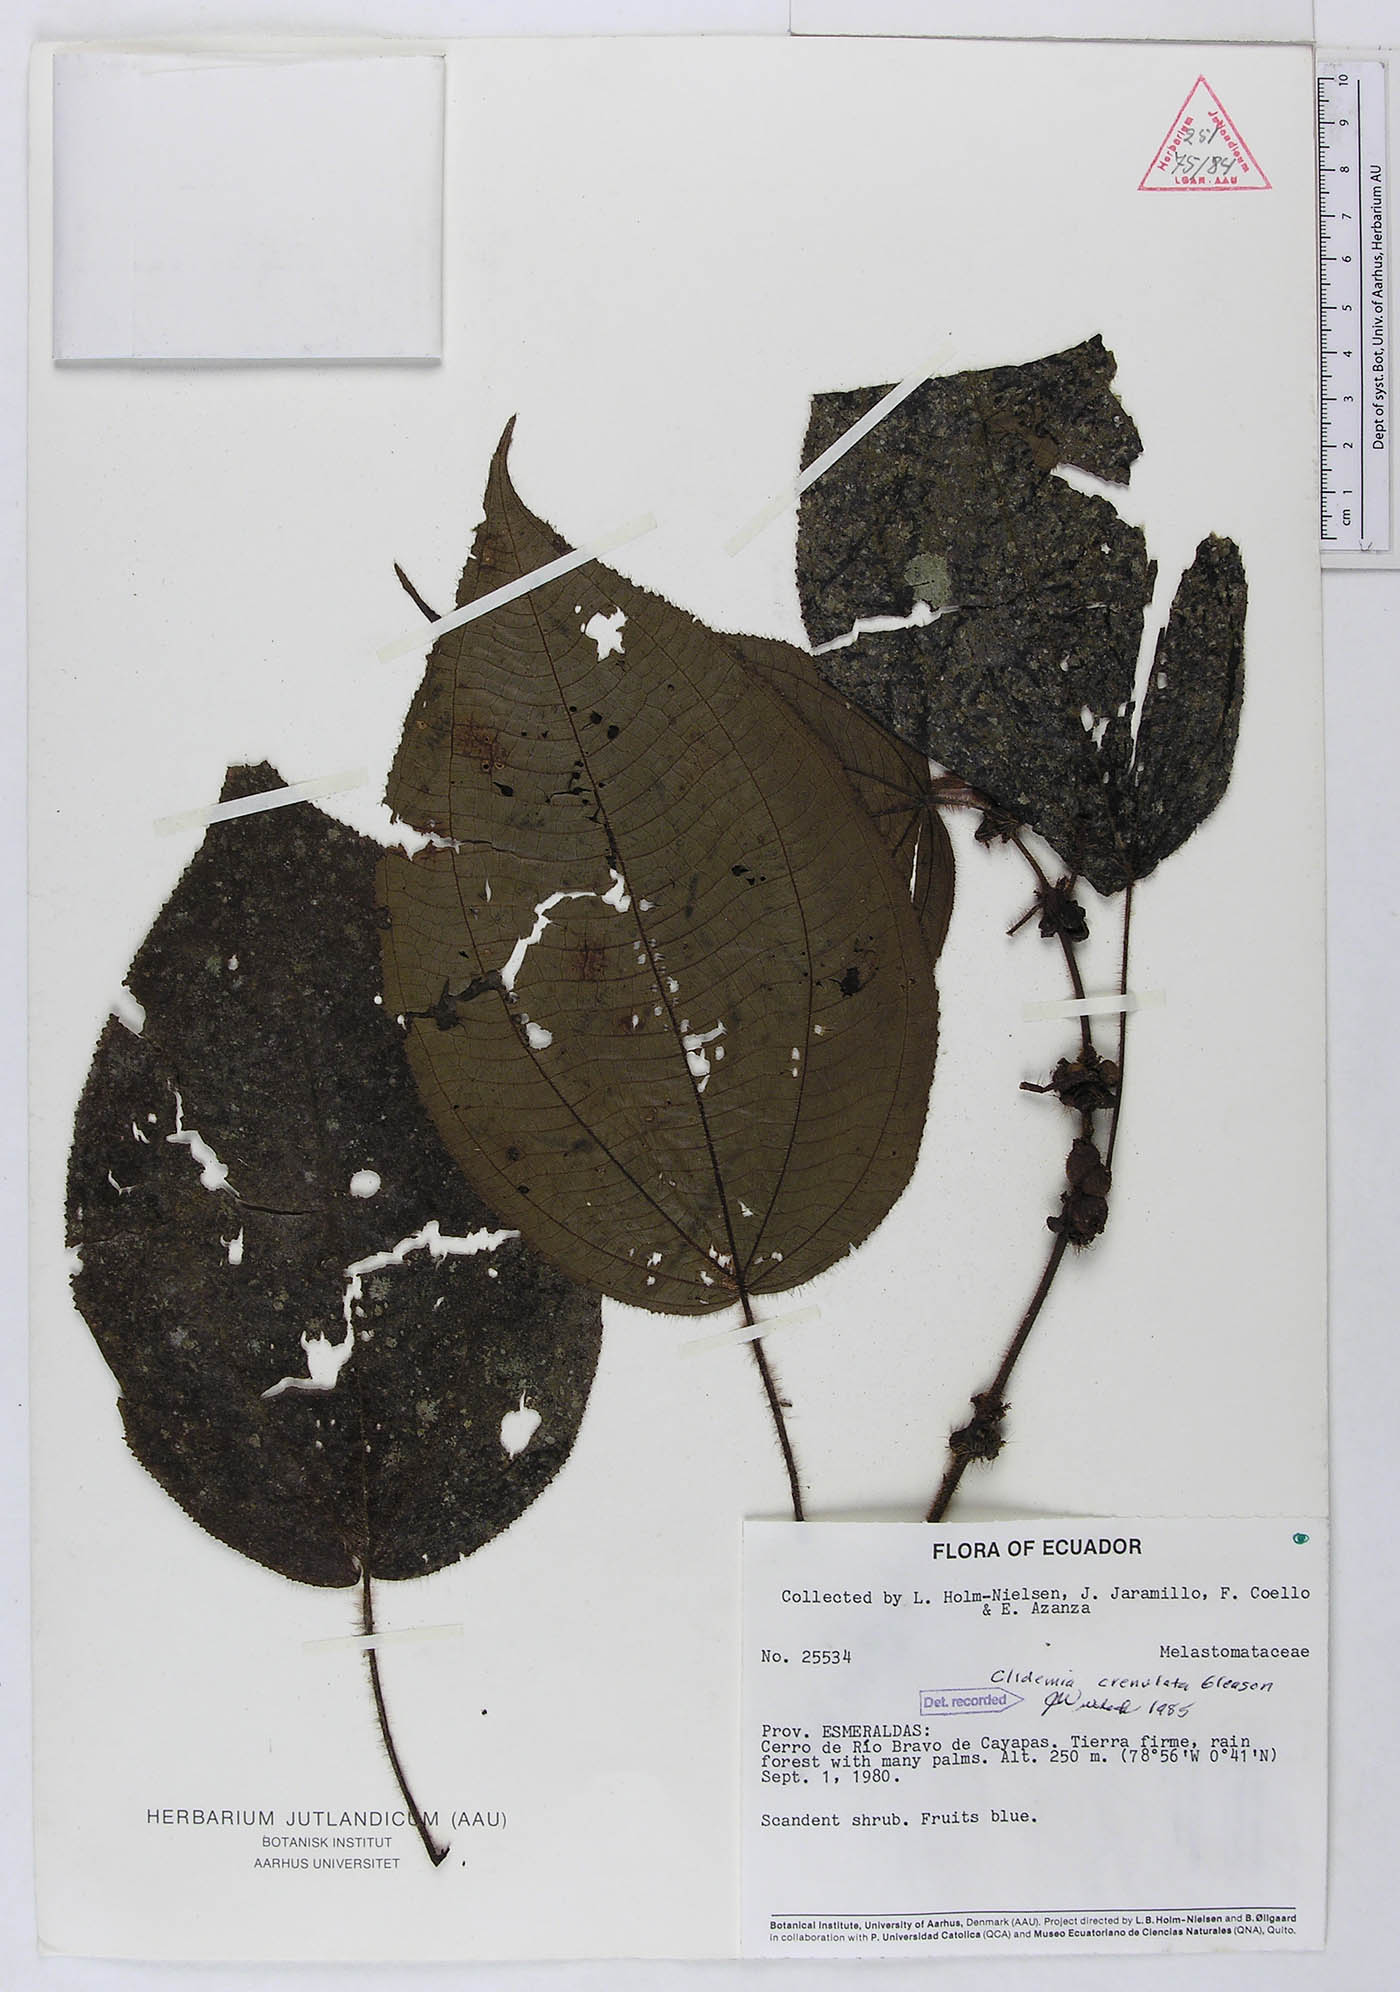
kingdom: Plantae
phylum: Tracheophyta
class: Magnoliopsida
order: Myrtales
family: Melastomataceae
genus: Miconia
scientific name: Miconia crenulata
